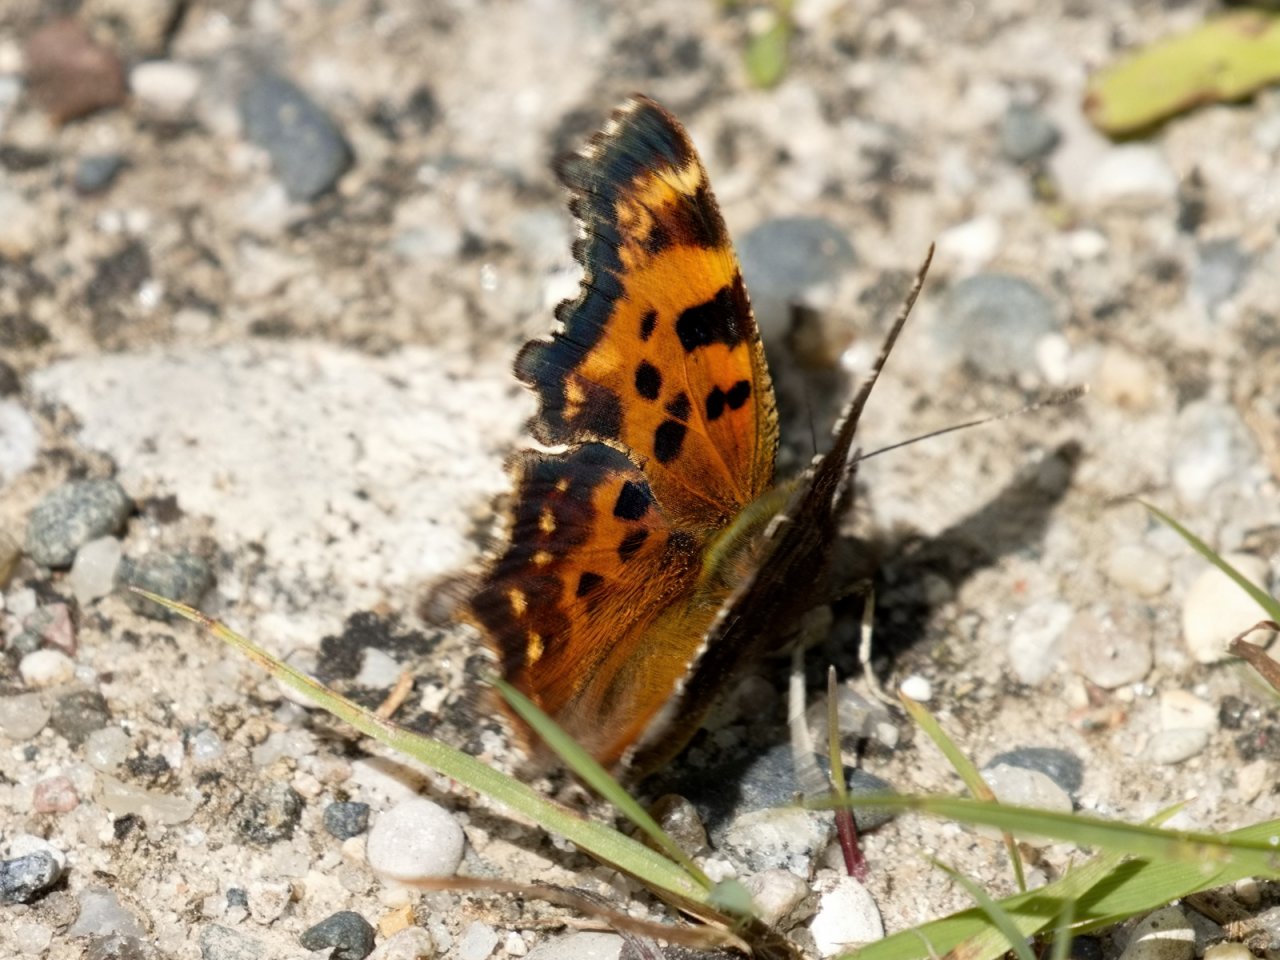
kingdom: Animalia
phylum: Arthropoda
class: Insecta
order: Lepidoptera
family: Nymphalidae
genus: Polygonia
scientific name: Polygonia faunus
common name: Green Comma
